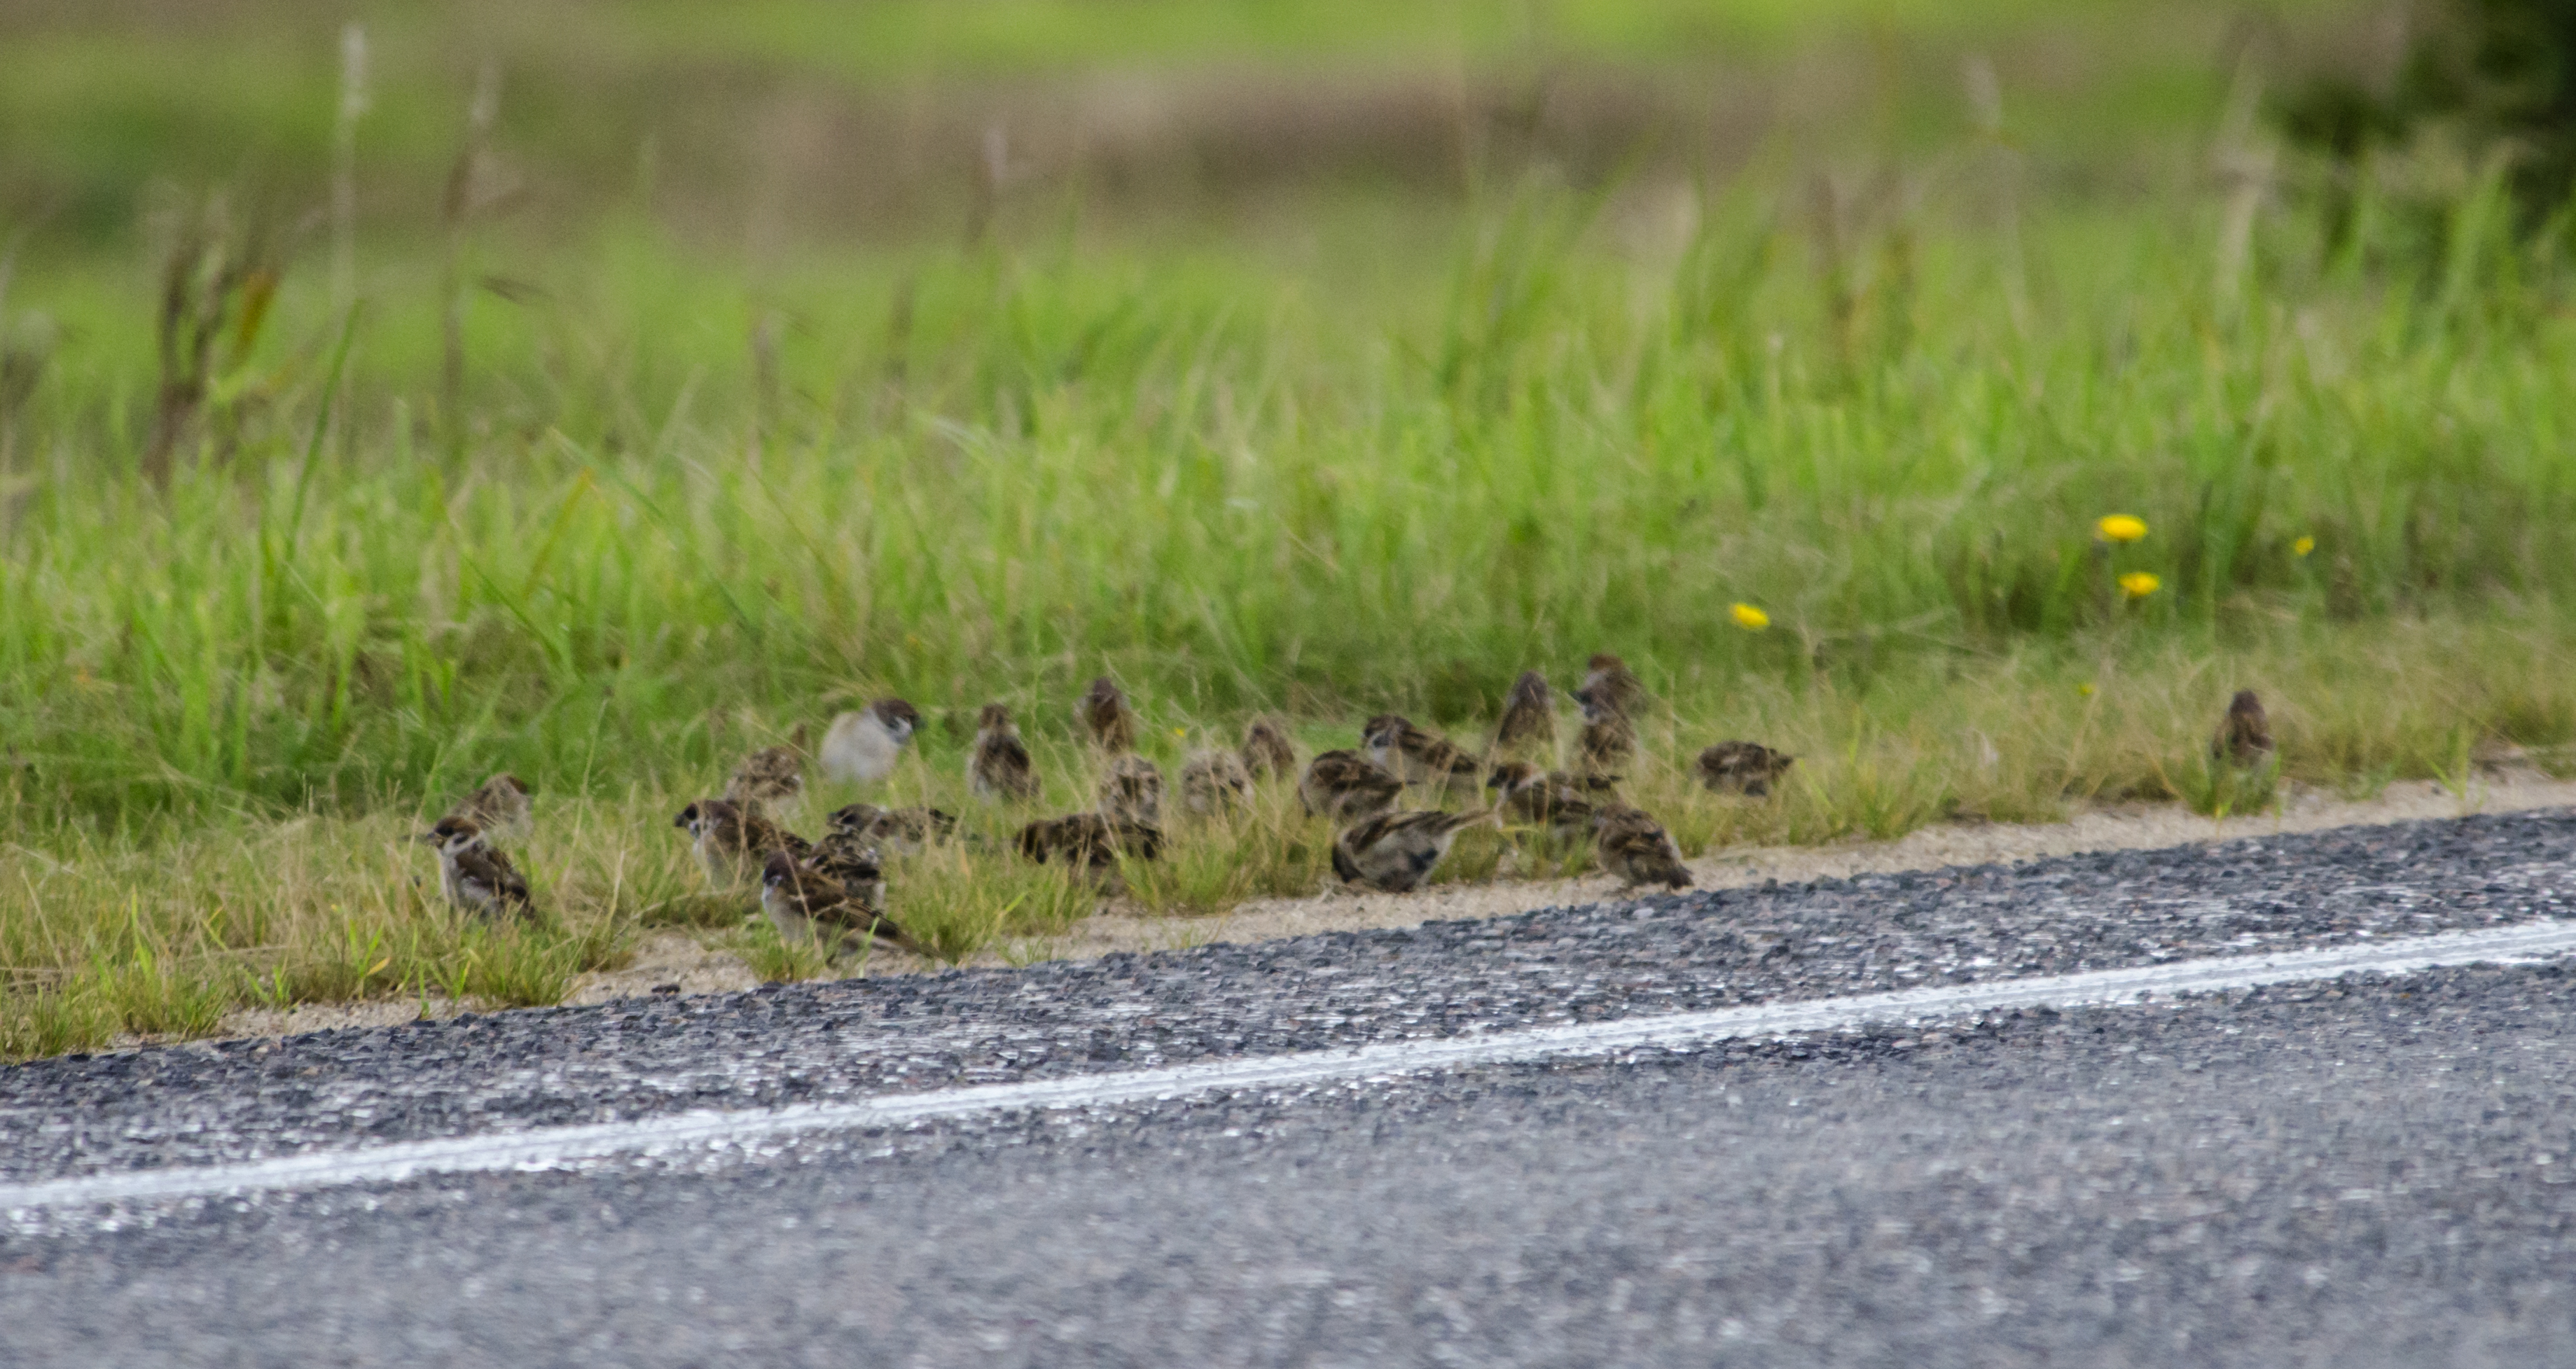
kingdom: Animalia
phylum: Chordata
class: Aves
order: Passeriformes
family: Passeridae
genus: Passer
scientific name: Passer montanus
